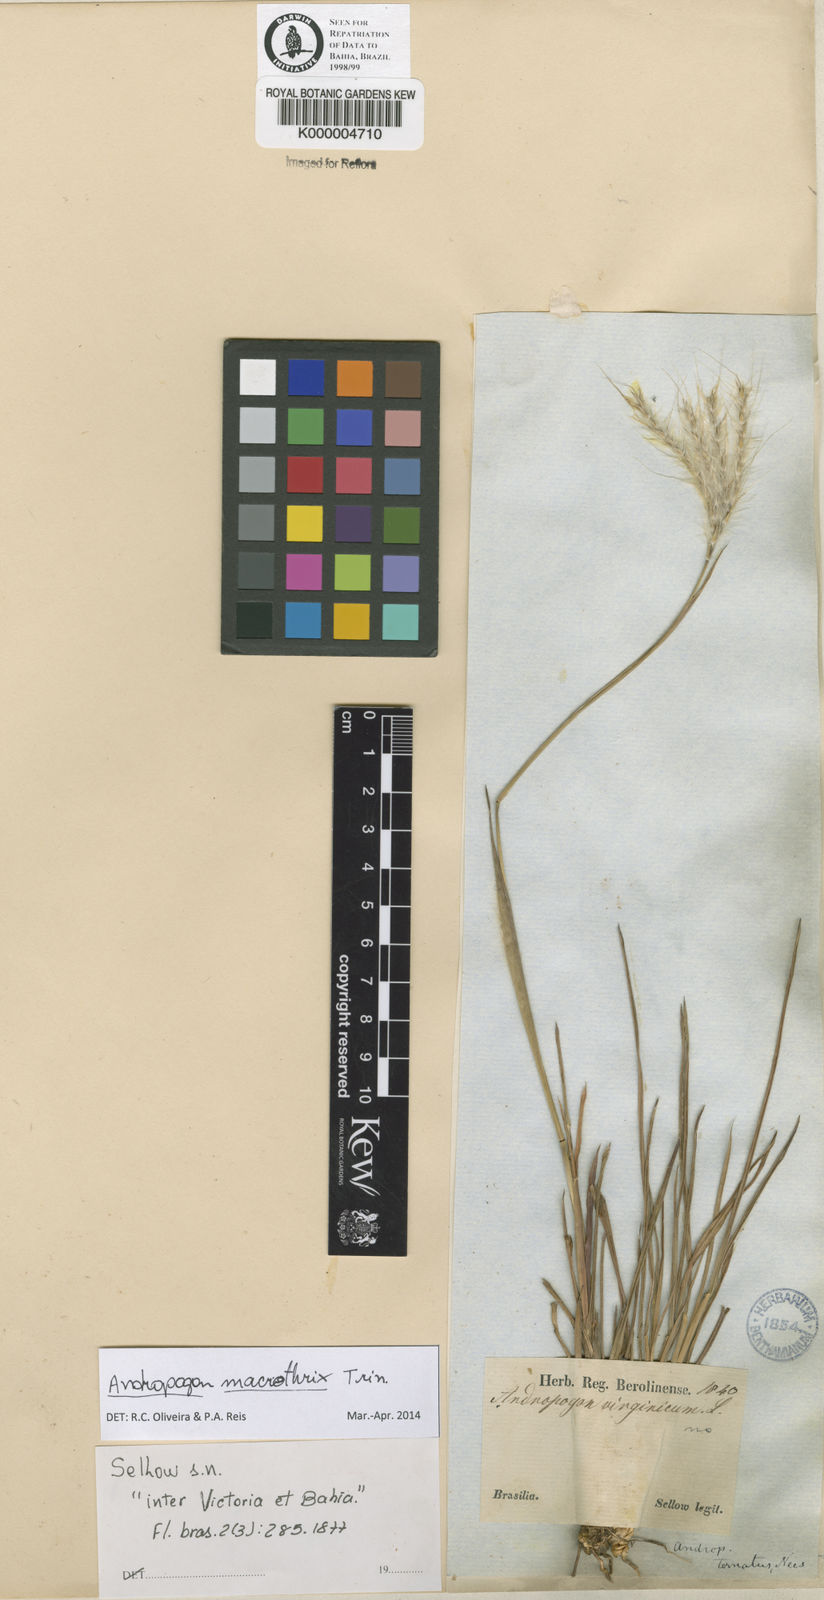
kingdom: Plantae
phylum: Tracheophyta
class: Liliopsida
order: Poales
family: Poaceae
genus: Andropogon
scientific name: Andropogon macrothrix
